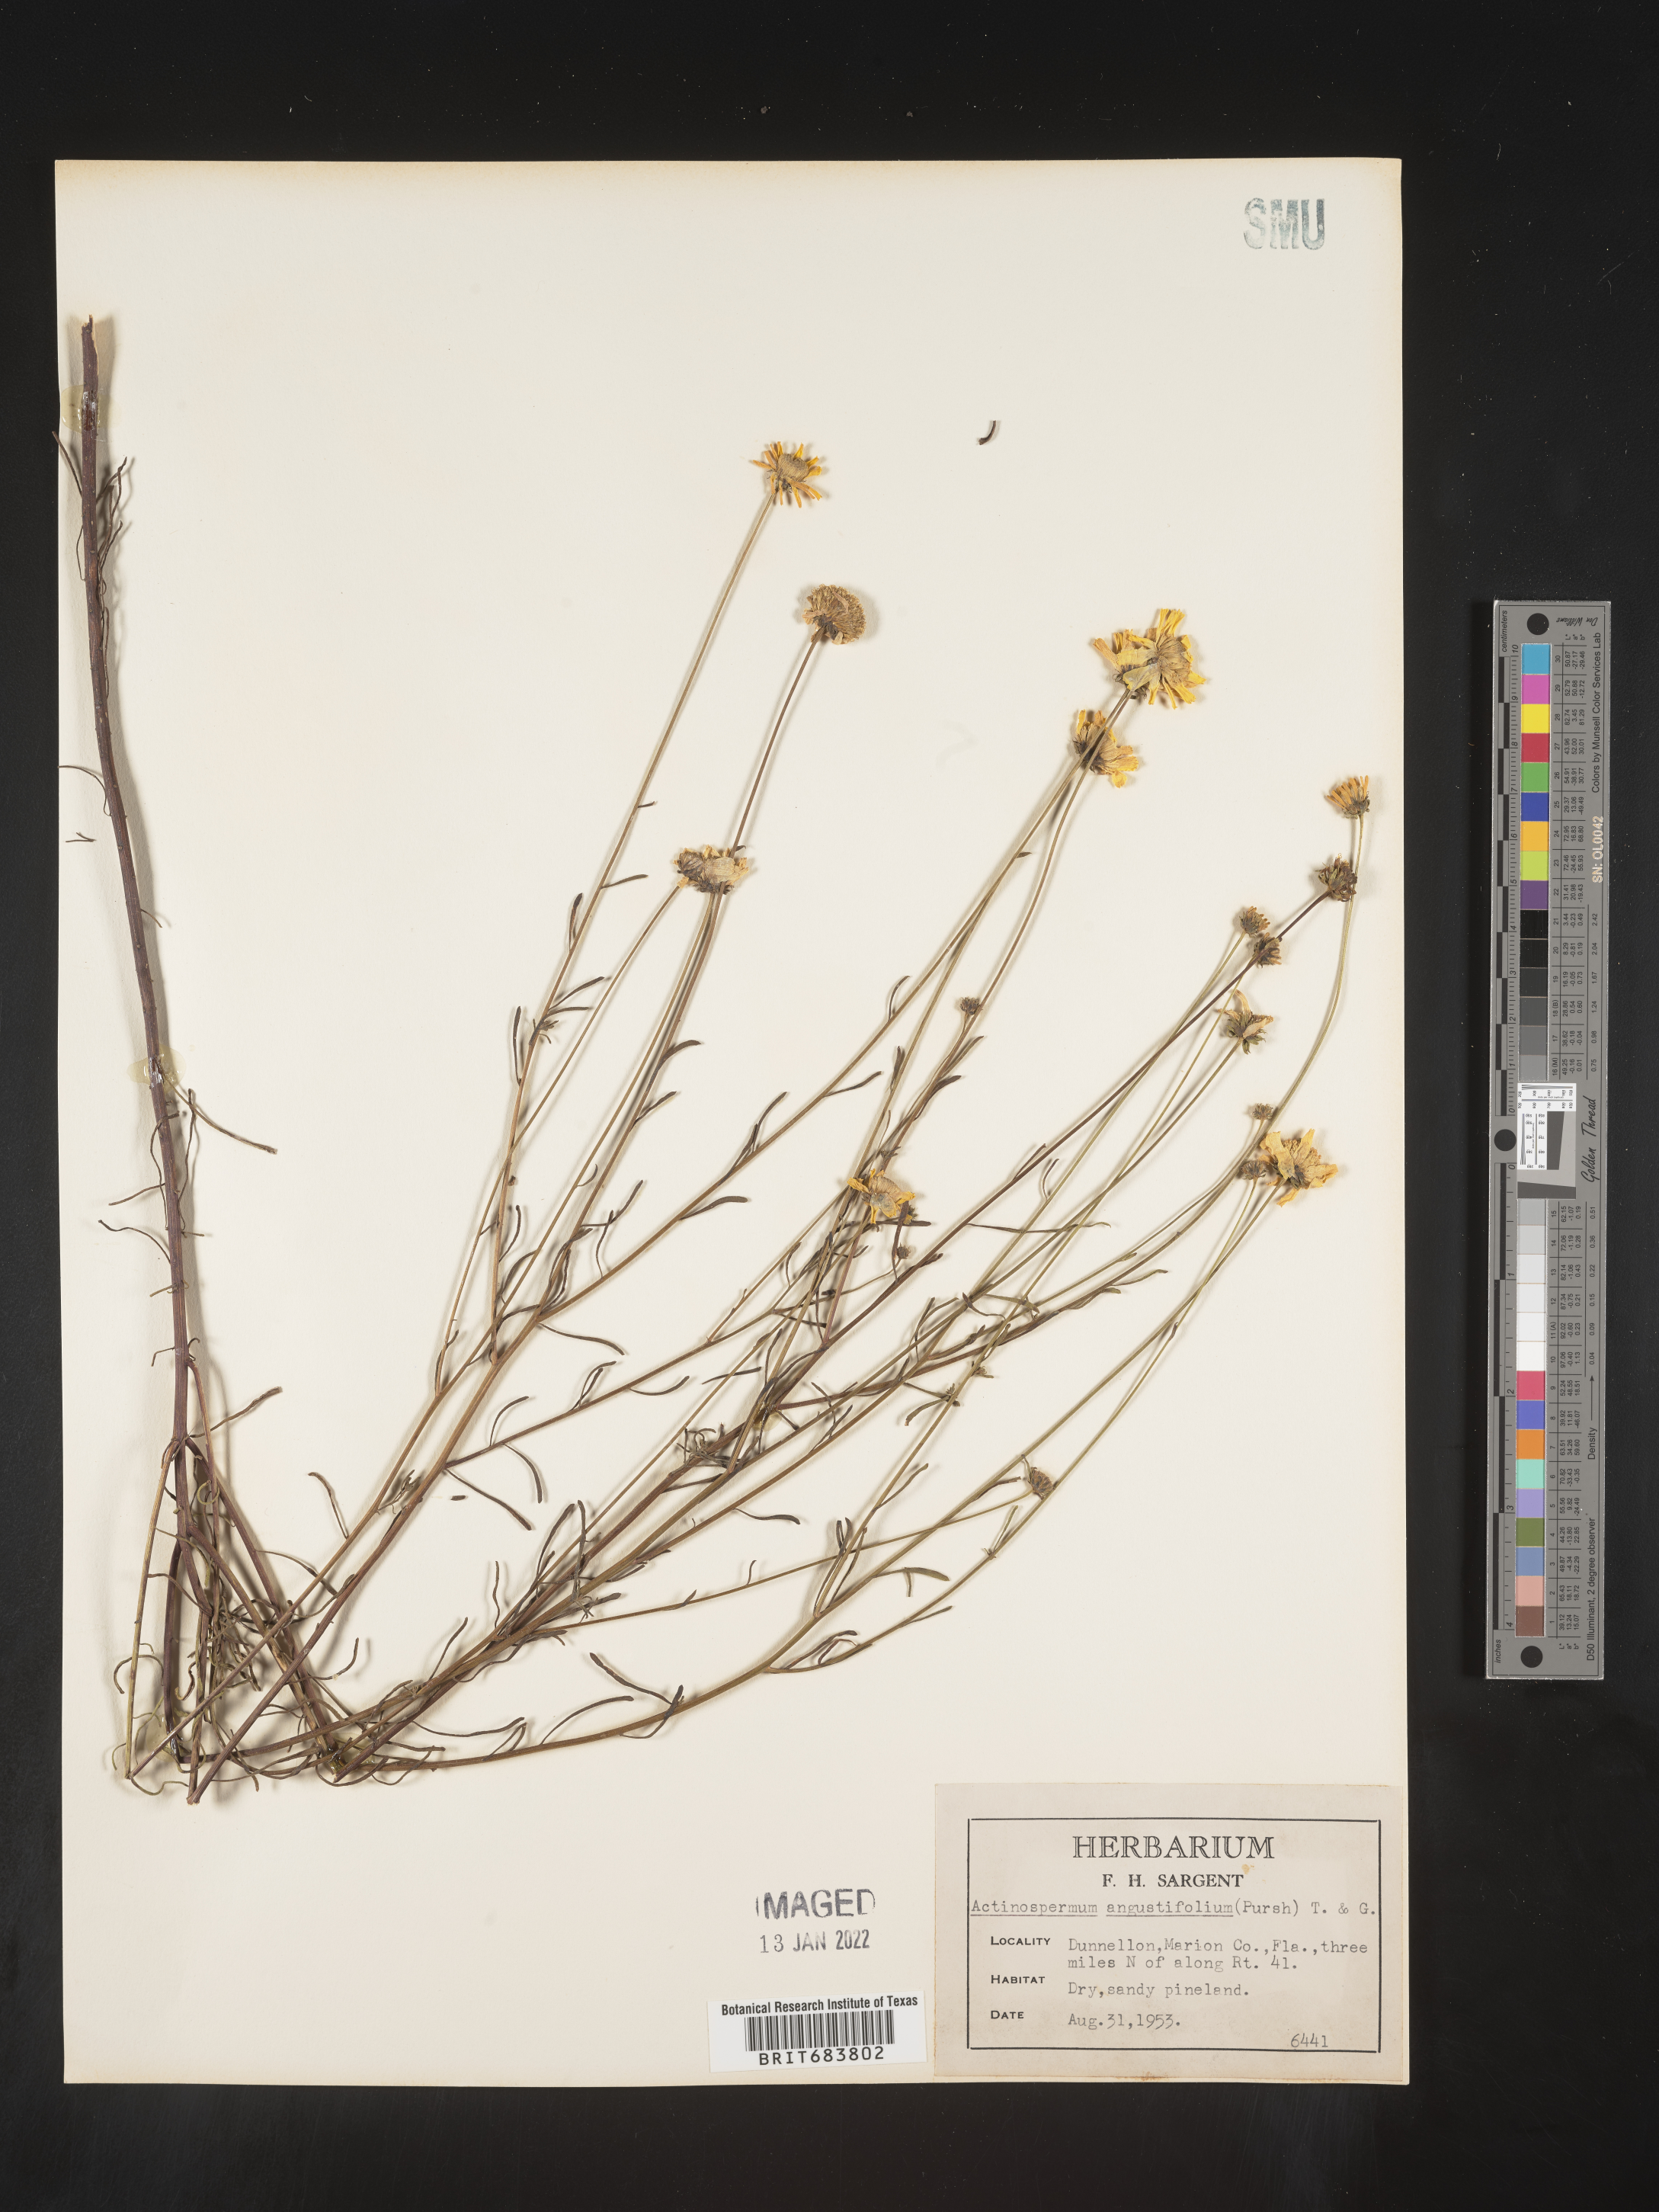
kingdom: Plantae
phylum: Tracheophyta
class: Magnoliopsida
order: Asterales
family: Asteraceae
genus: Balduina
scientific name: Balduina angustifolia
